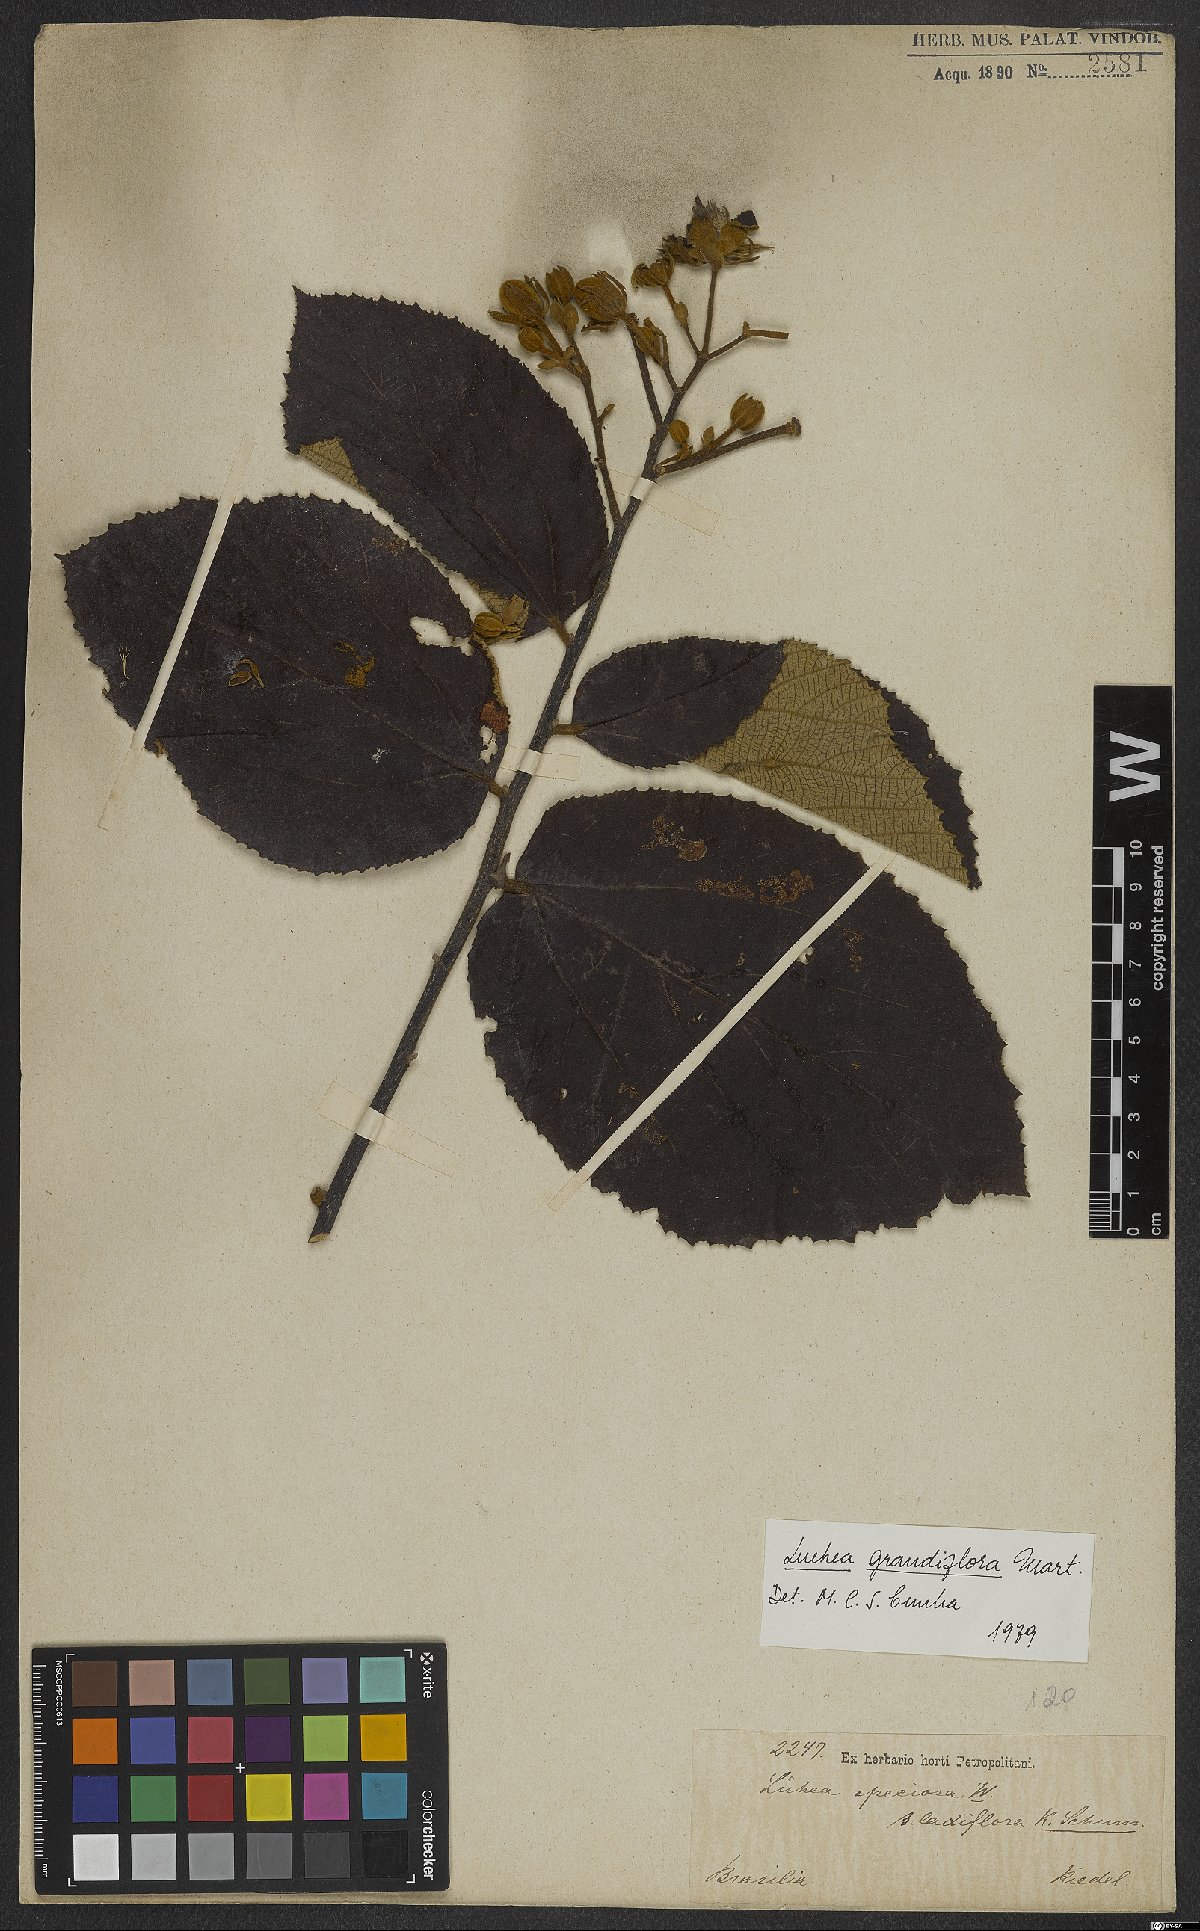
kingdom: Plantae
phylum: Tracheophyta
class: Magnoliopsida
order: Malvales
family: Malvaceae
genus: Luehea
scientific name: Luehea grandiflora
